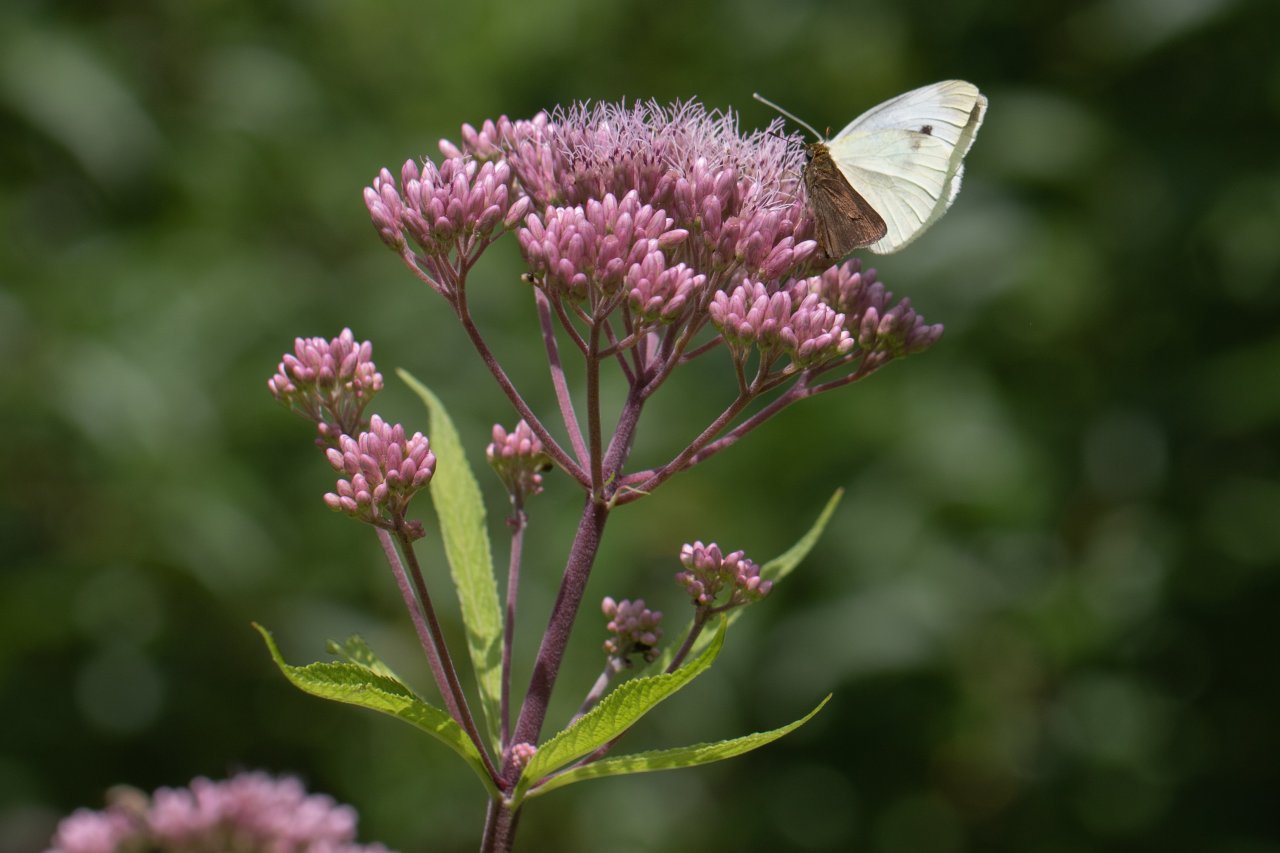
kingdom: Animalia
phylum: Arthropoda
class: Insecta
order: Lepidoptera
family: Pieridae
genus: Pieris
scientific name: Pieris rapae
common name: Cabbage White
